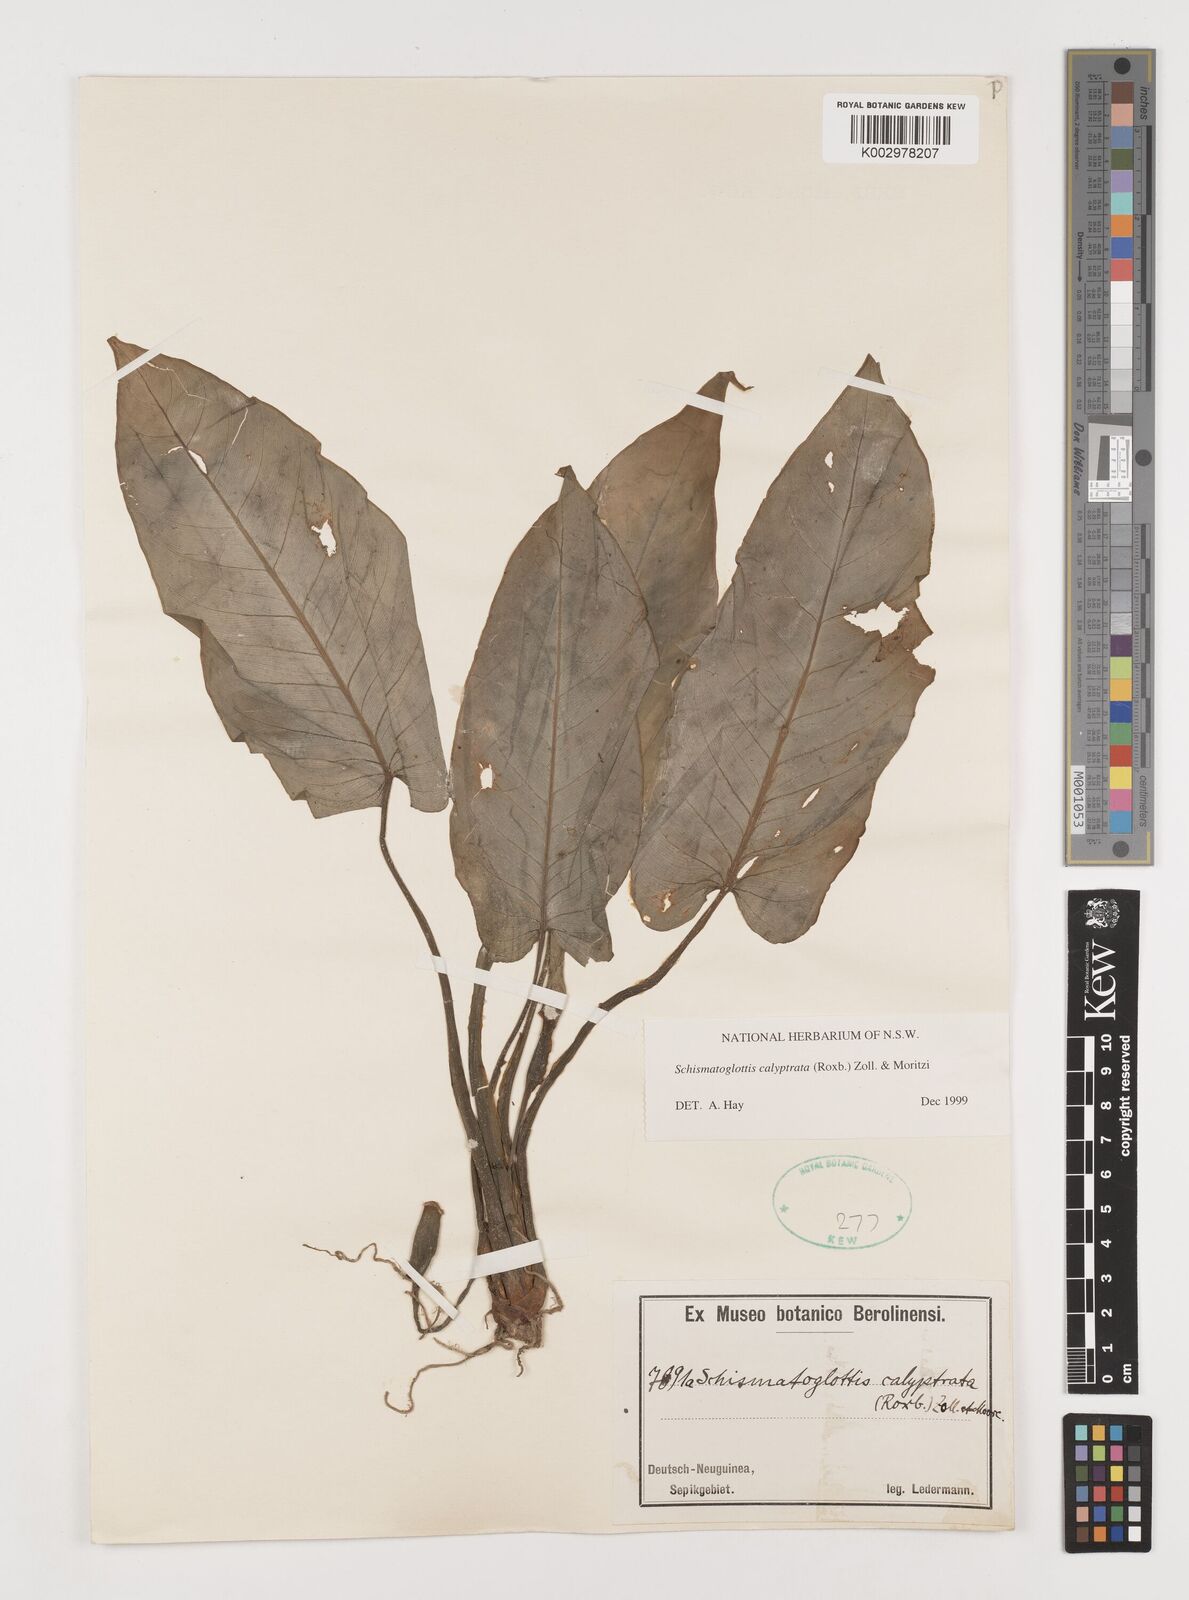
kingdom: Plantae
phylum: Tracheophyta
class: Liliopsida
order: Alismatales
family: Araceae
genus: Schismatoglottis
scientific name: Schismatoglottis calyptrata
